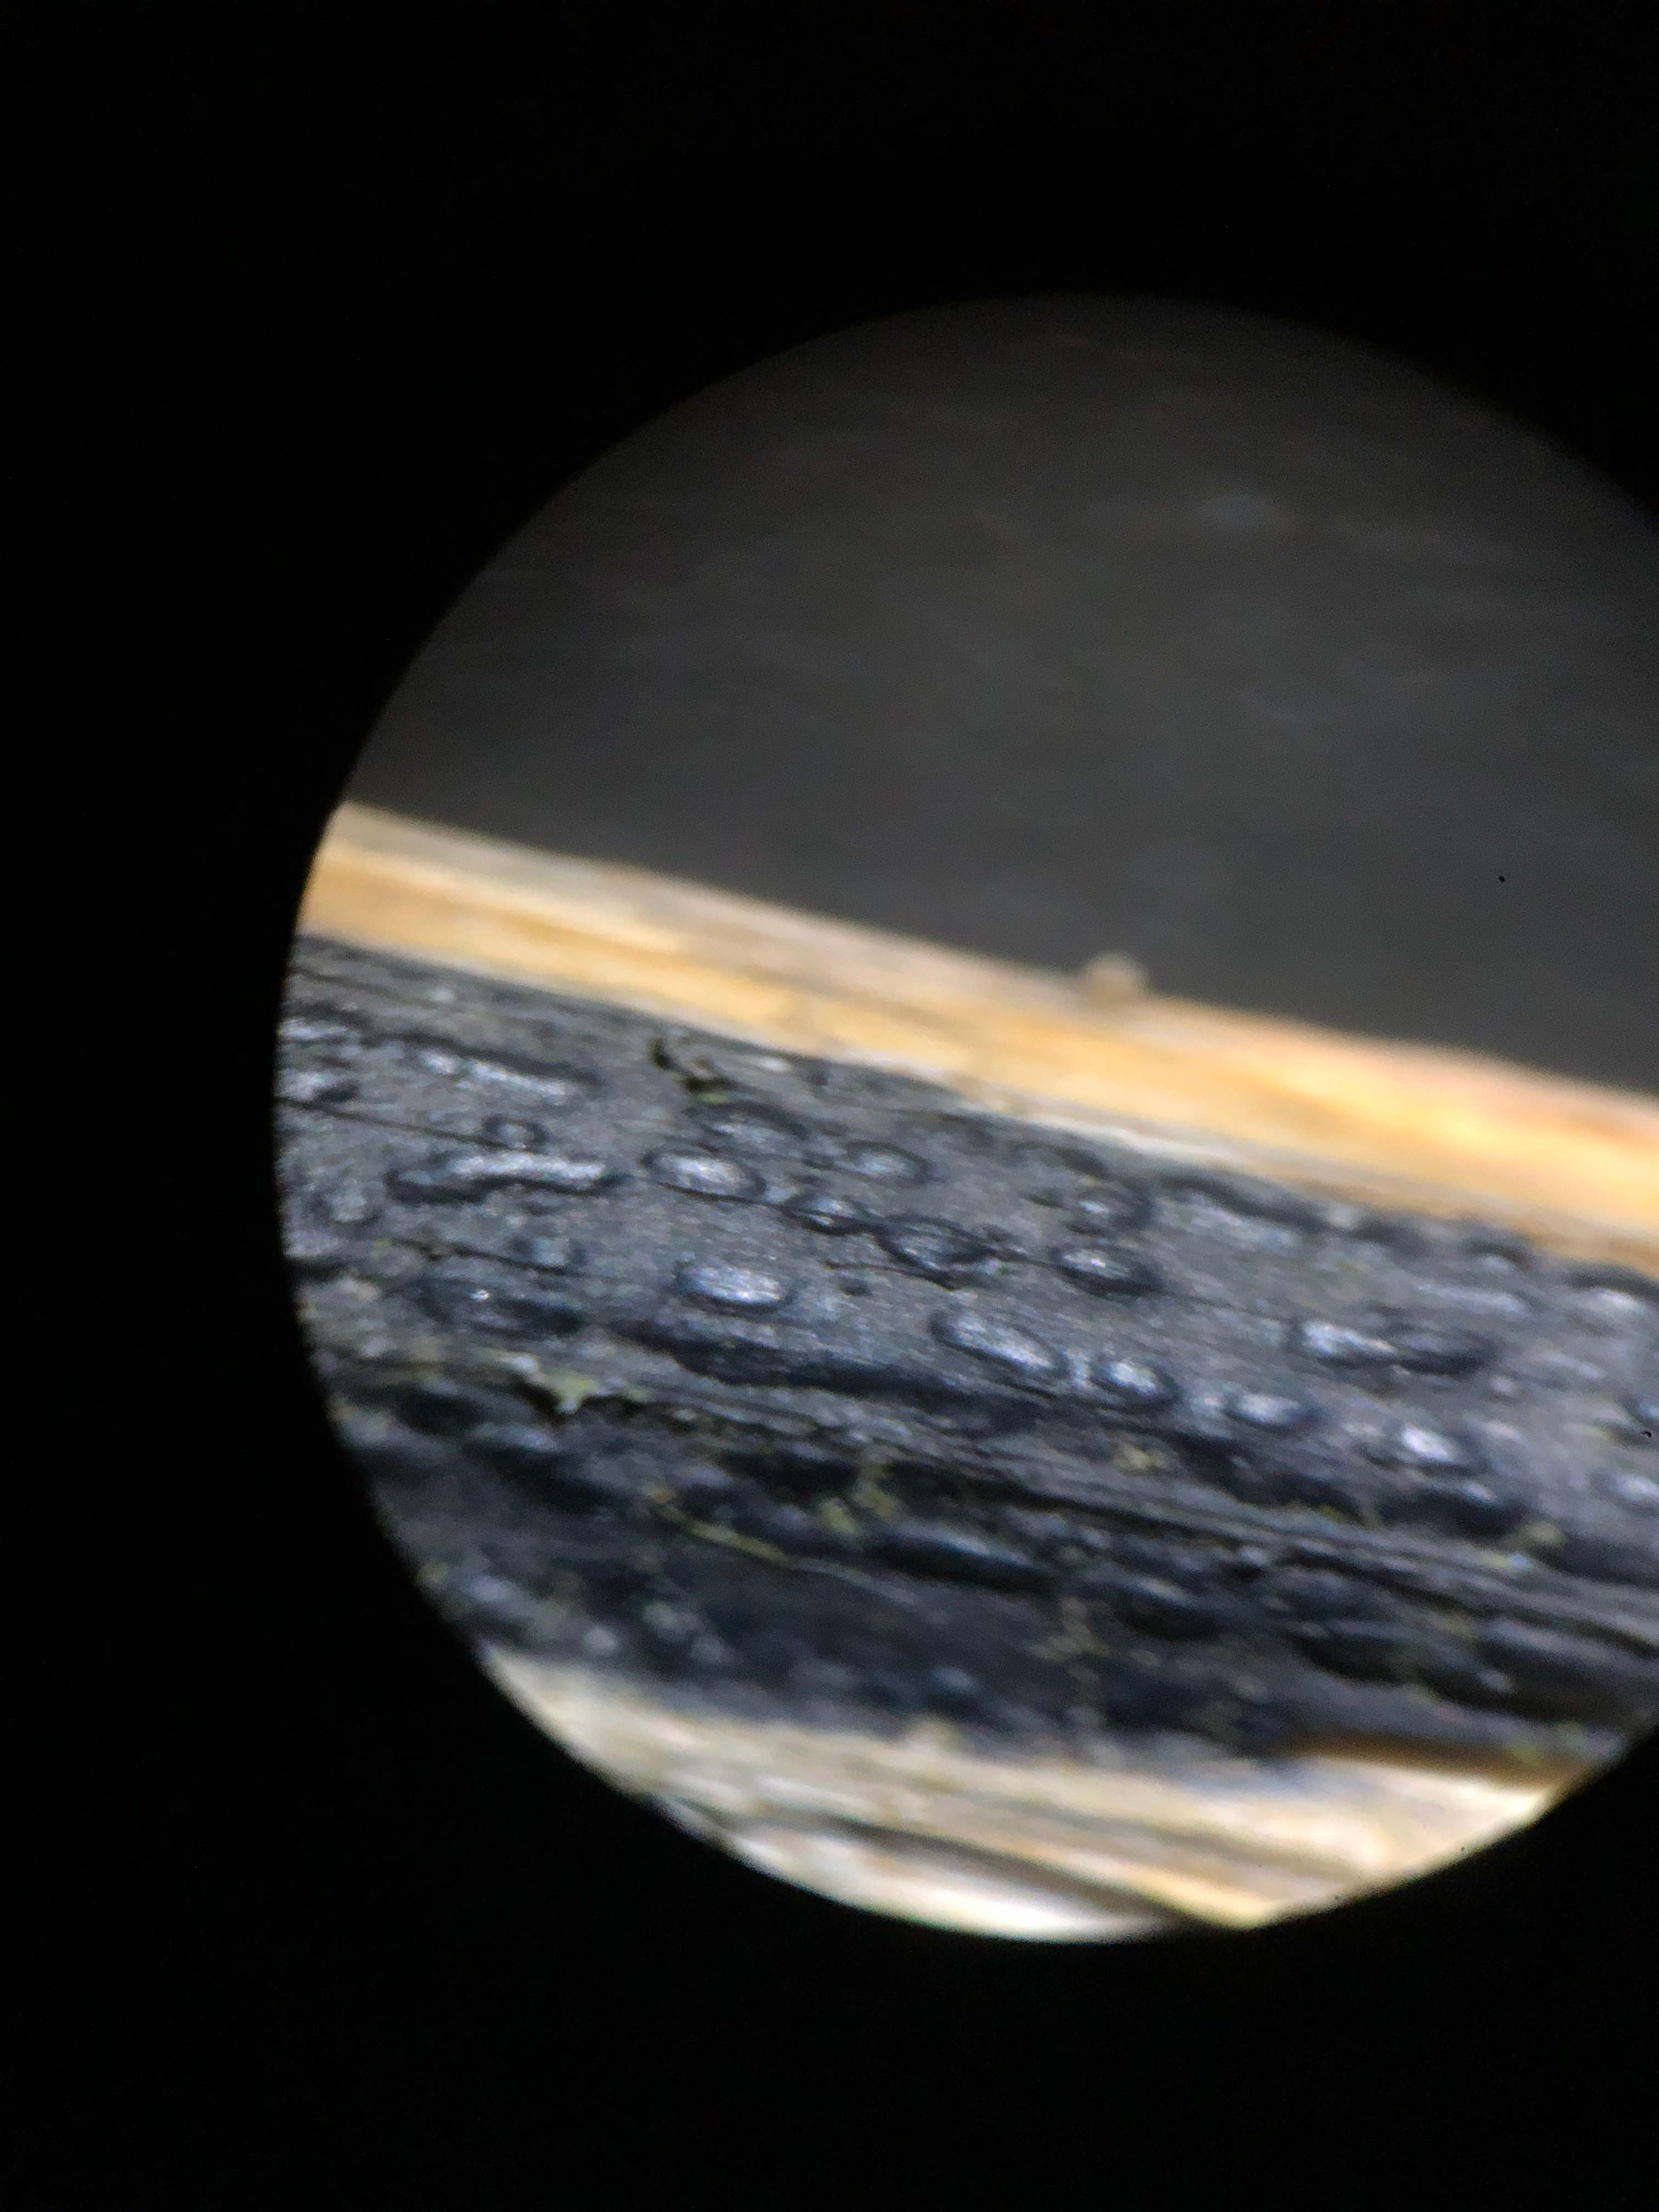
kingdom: Fungi
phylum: Ascomycota
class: Sordariomycetes
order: Diaporthales
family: Diaporthaceae
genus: Diaporthopsis
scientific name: Diaporthopsis urticae
